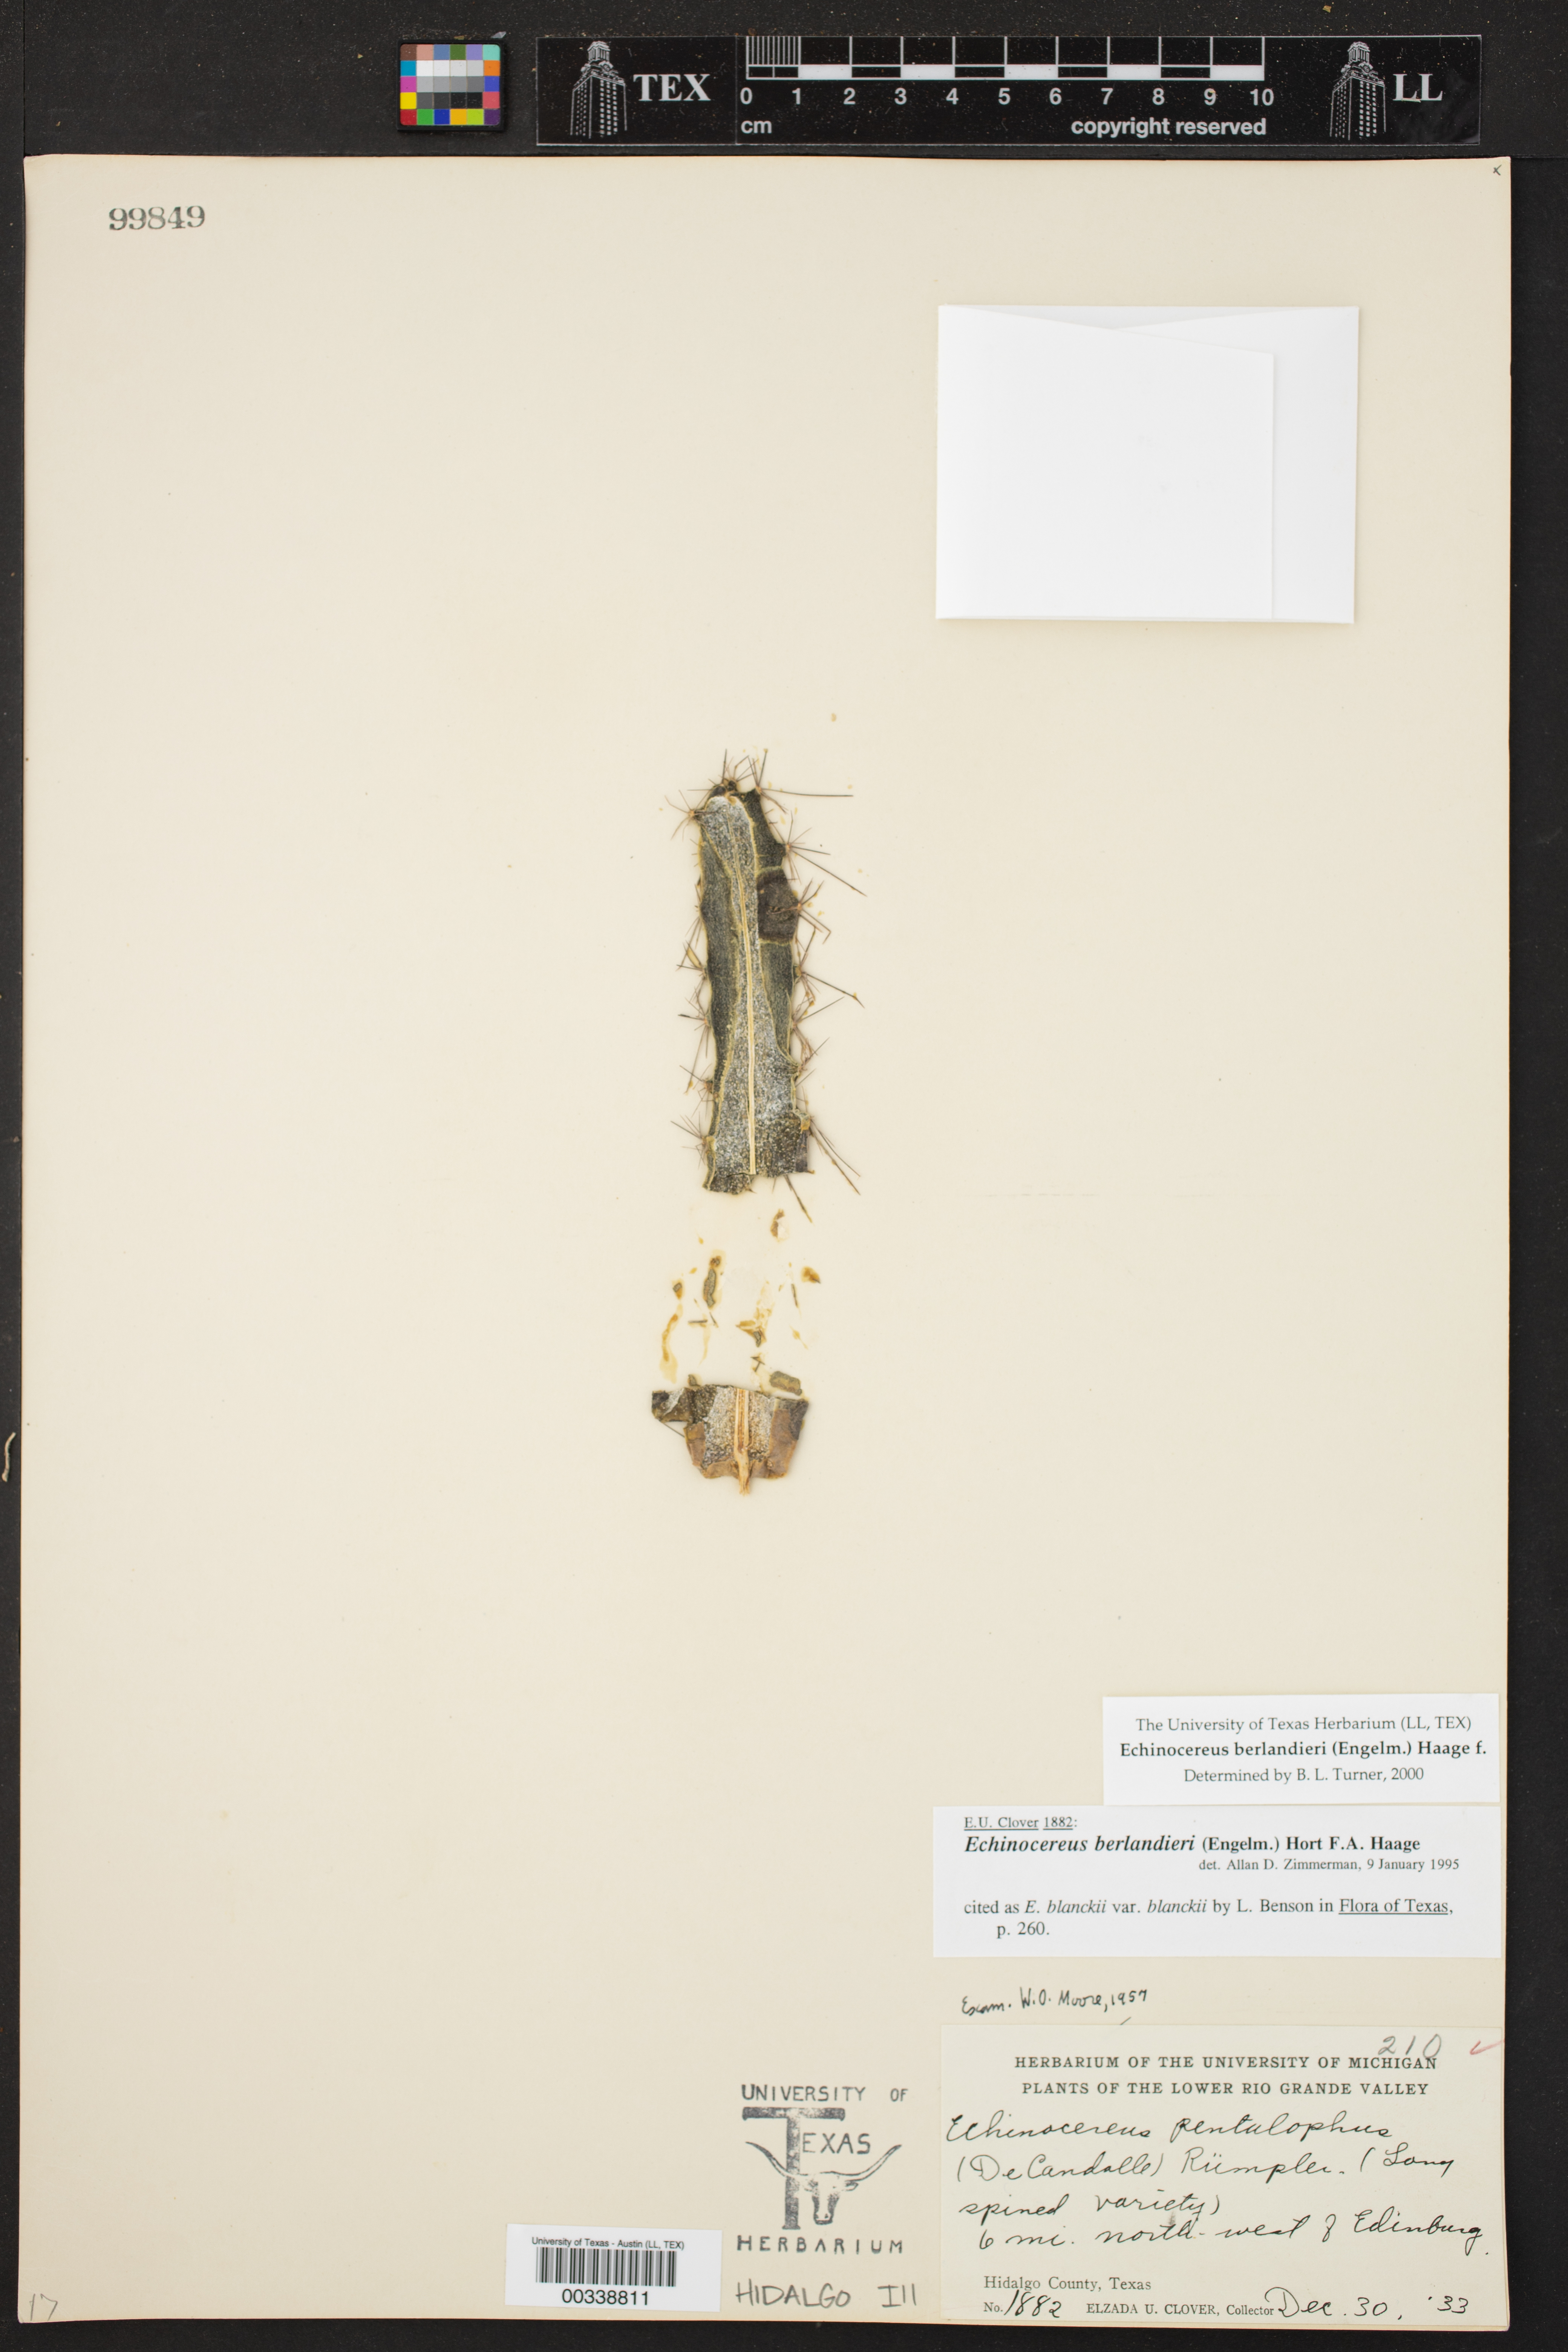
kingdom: Plantae
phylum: Tracheophyta
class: Magnoliopsida
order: Caryophyllales
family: Cactaceae
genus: Echinocereus
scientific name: Echinocereus berlandieri
